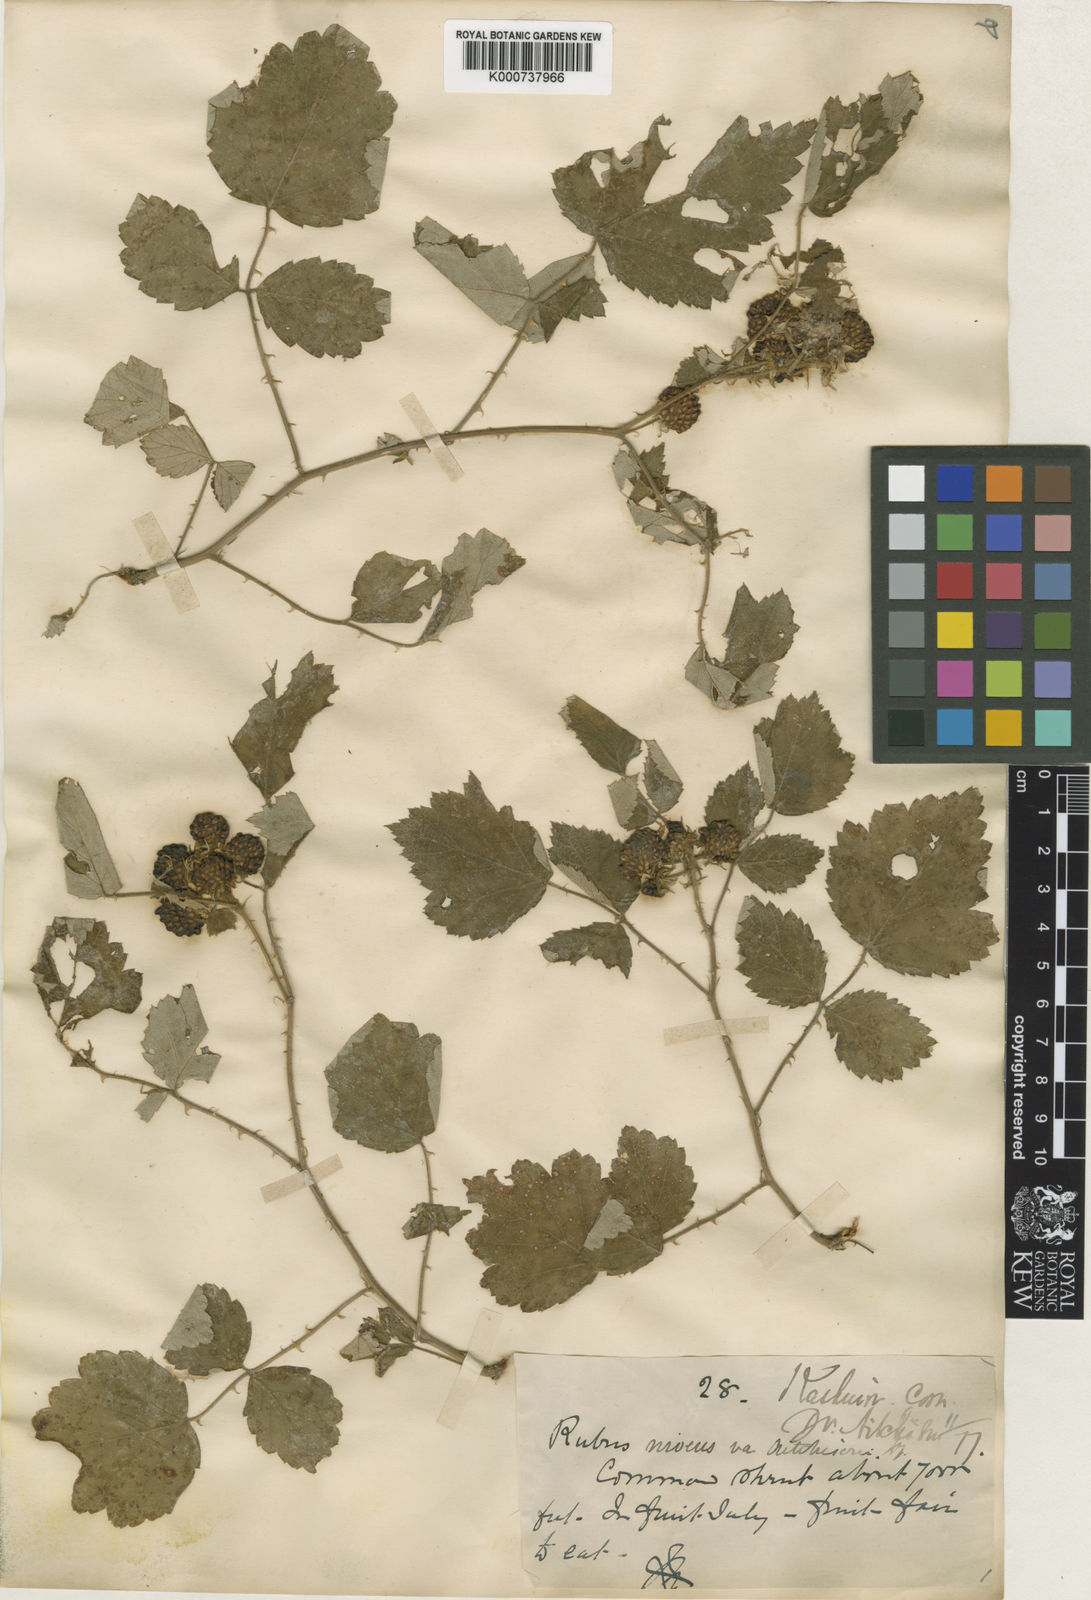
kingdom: Plantae
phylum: Tracheophyta
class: Magnoliopsida
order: Rosales
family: Rosaceae
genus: Rubus
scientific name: Rubus pedunculosus
